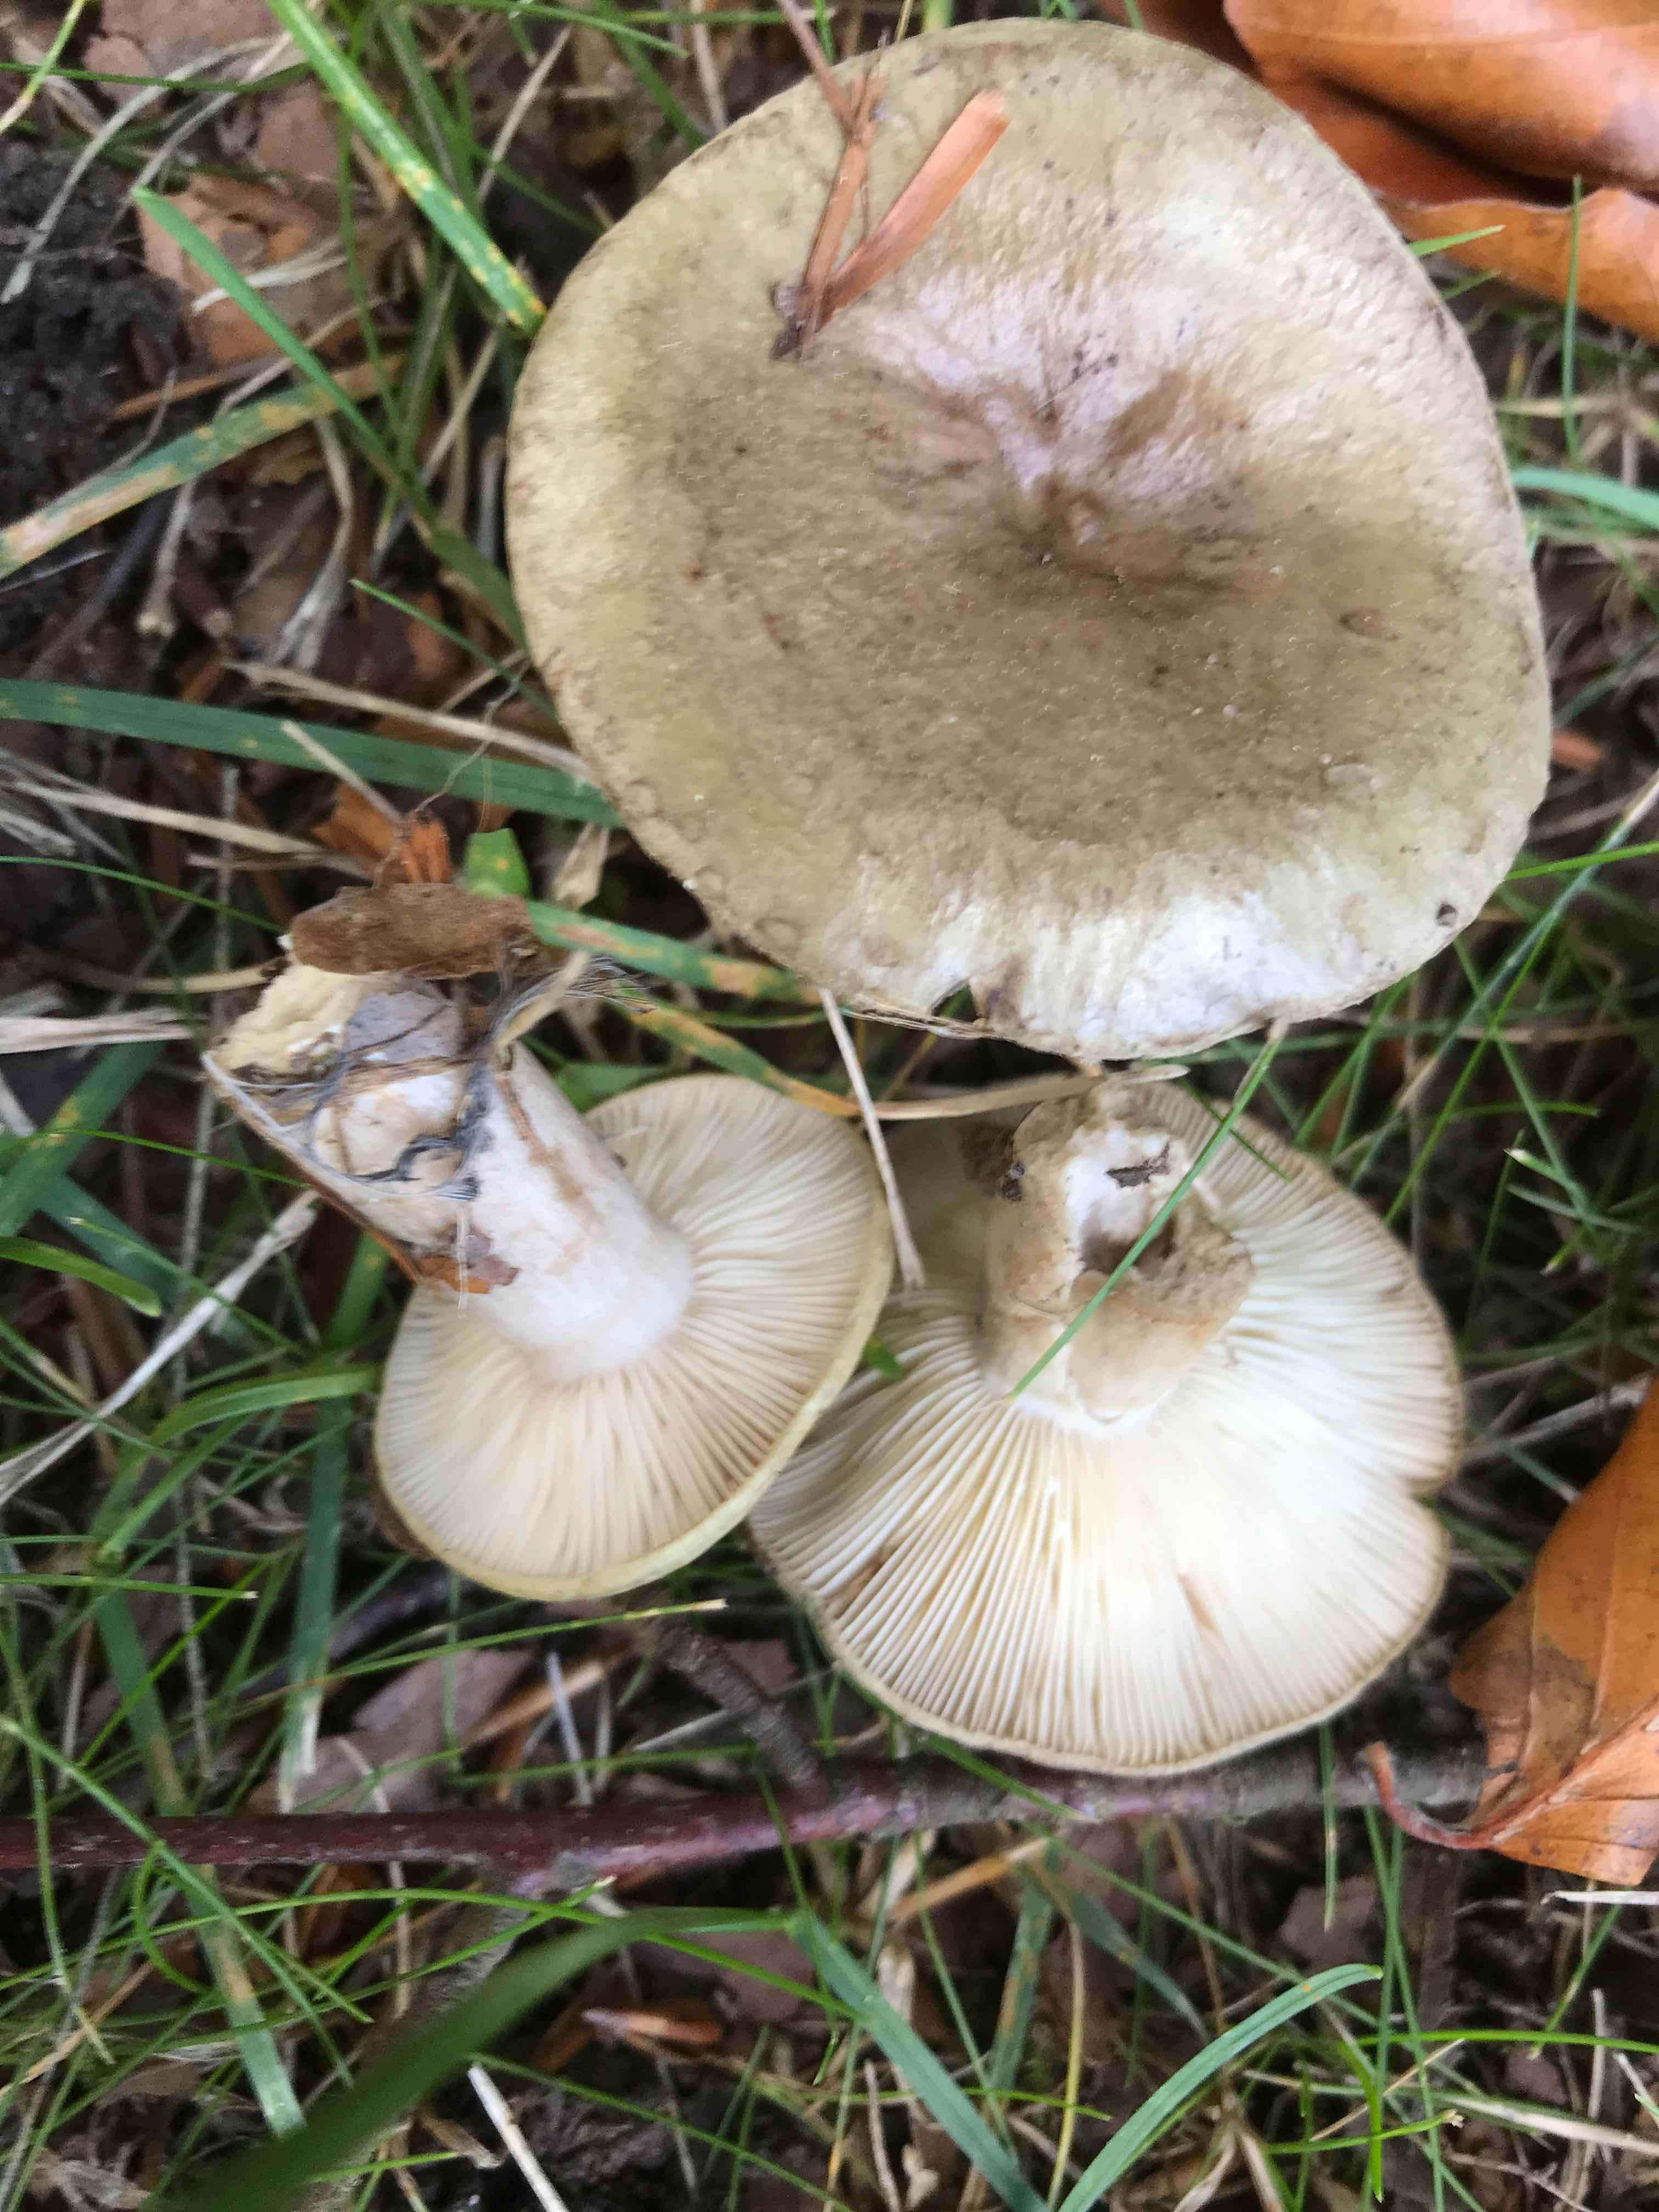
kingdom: Fungi
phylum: Basidiomycota
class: Agaricomycetes
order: Russulales
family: Russulaceae
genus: Lactarius
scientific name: Lactarius blennius
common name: dråbeplettet mælkehat
